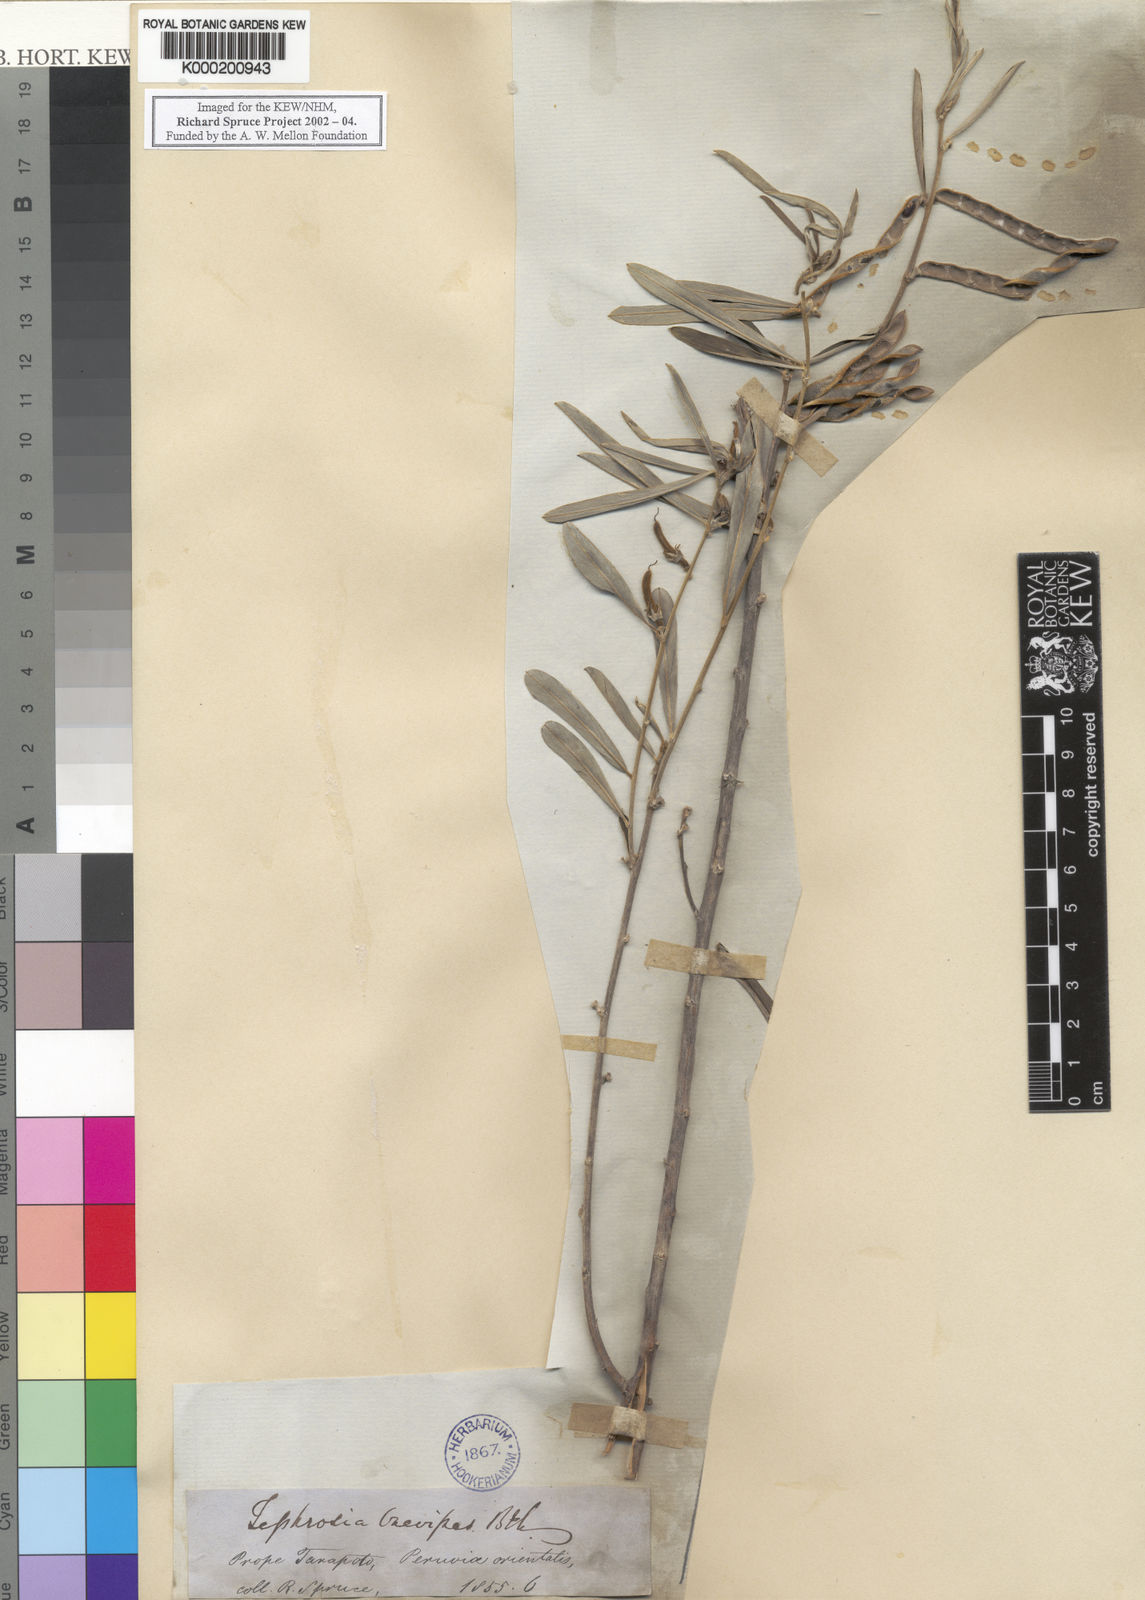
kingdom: Plantae
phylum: Tracheophyta
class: Magnoliopsida
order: Fabales
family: Fabaceae
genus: Tephrosia
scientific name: Tephrosia sessiliflora
